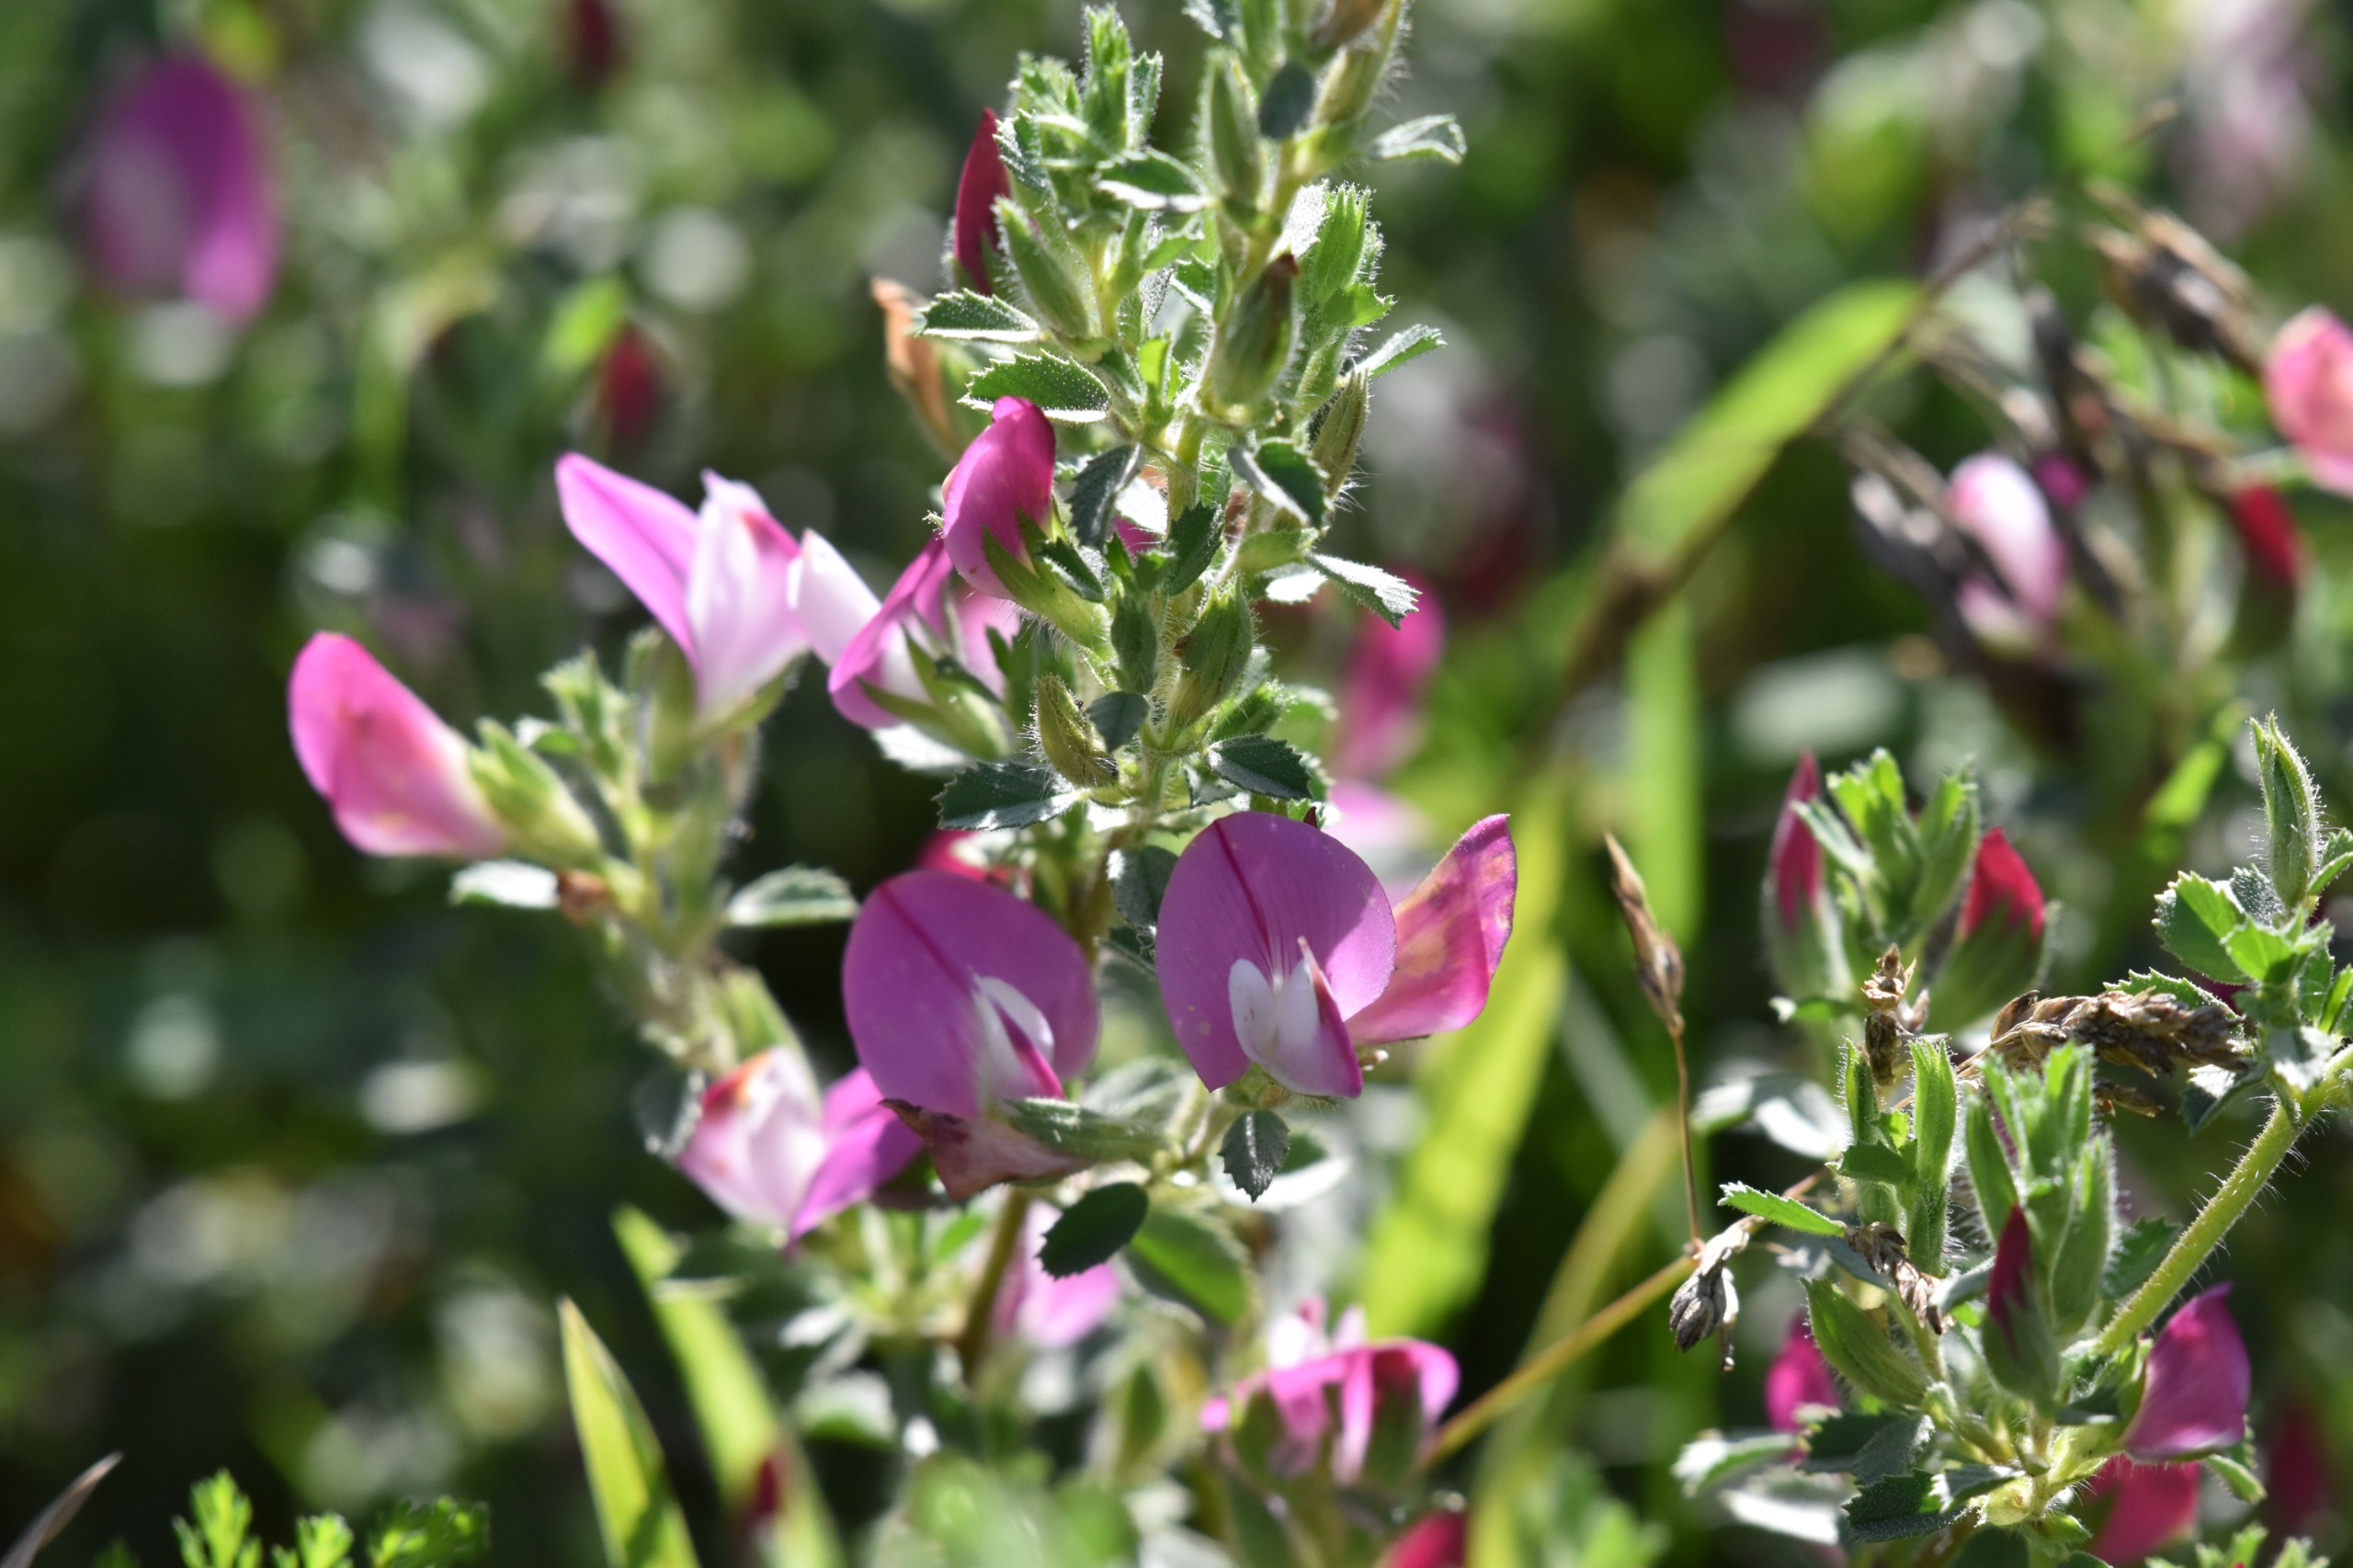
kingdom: Plantae
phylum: Tracheophyta
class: Magnoliopsida
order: Fabales
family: Fabaceae
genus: Ononis
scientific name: Ononis
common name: Kragekloslægten
